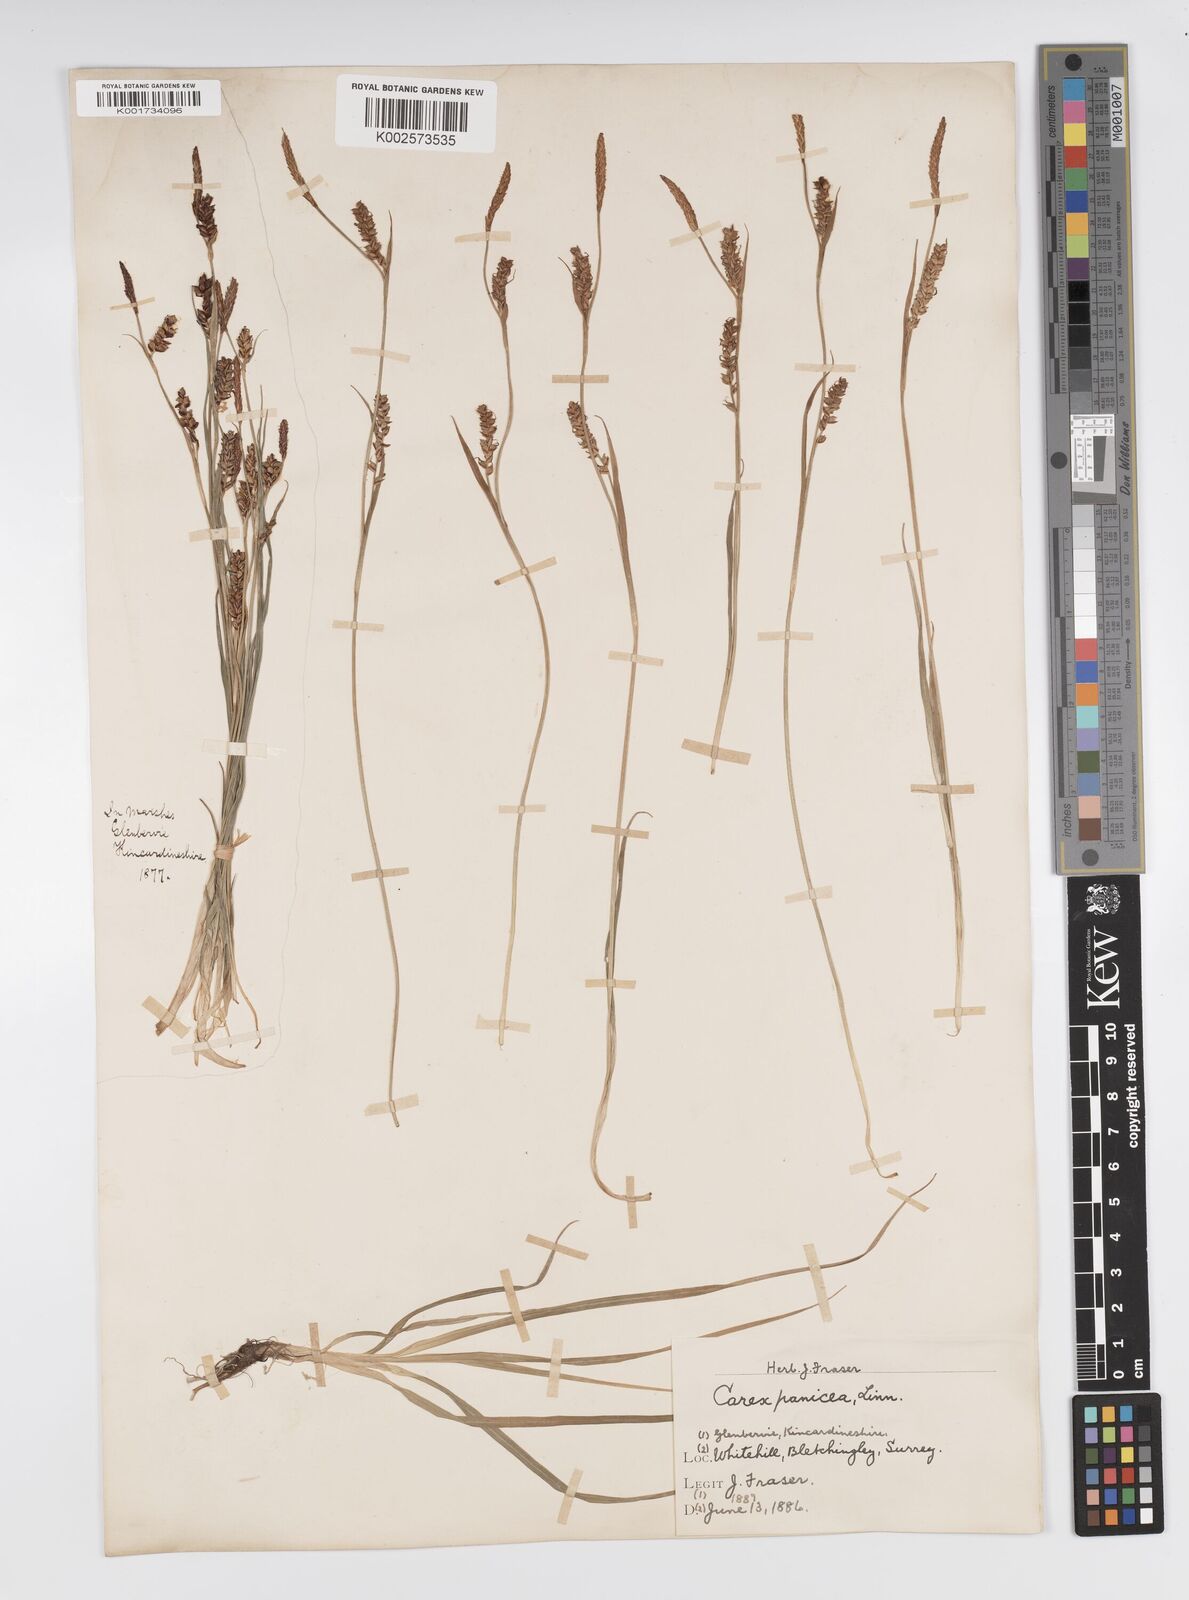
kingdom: Plantae
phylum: Tracheophyta
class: Liliopsida
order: Poales
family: Cyperaceae
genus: Carex
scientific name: Carex panicea
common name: Carnation sedge
